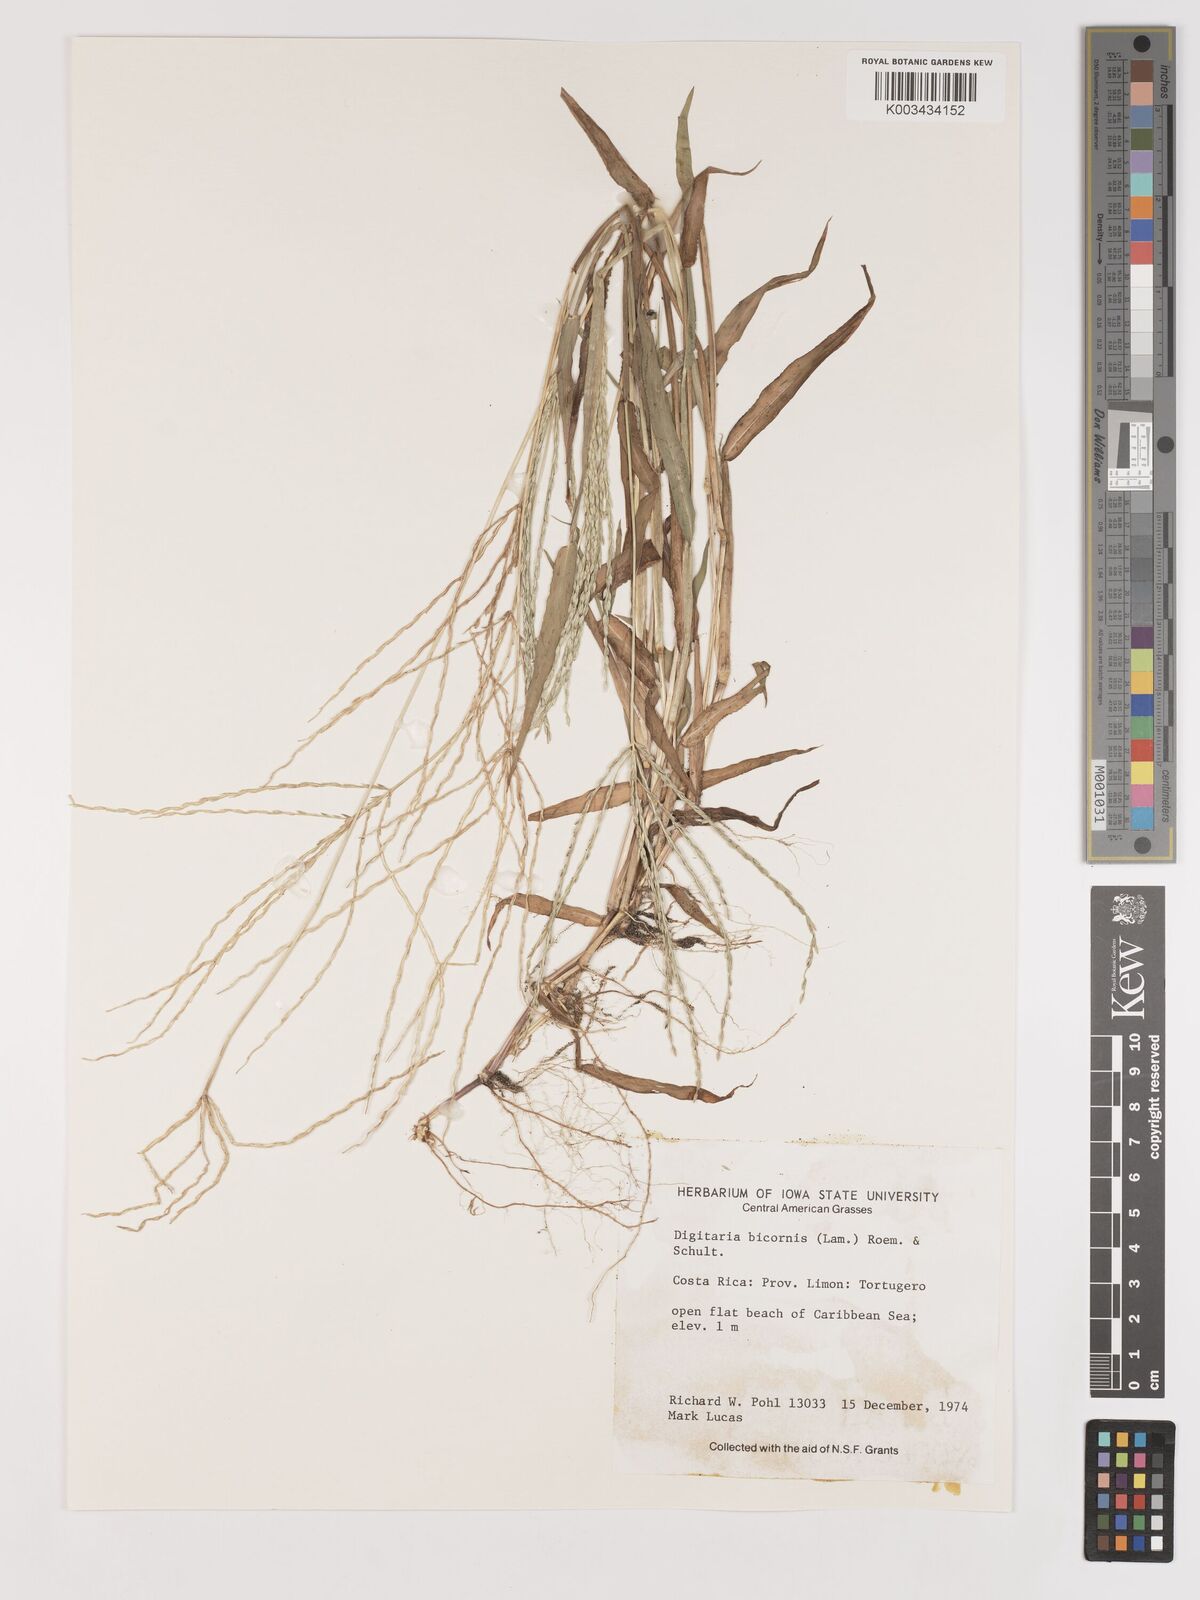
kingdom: Plantae
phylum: Tracheophyta
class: Liliopsida
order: Poales
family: Poaceae
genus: Digitaria
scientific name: Digitaria ciliaris
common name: Tropical finger-grass
